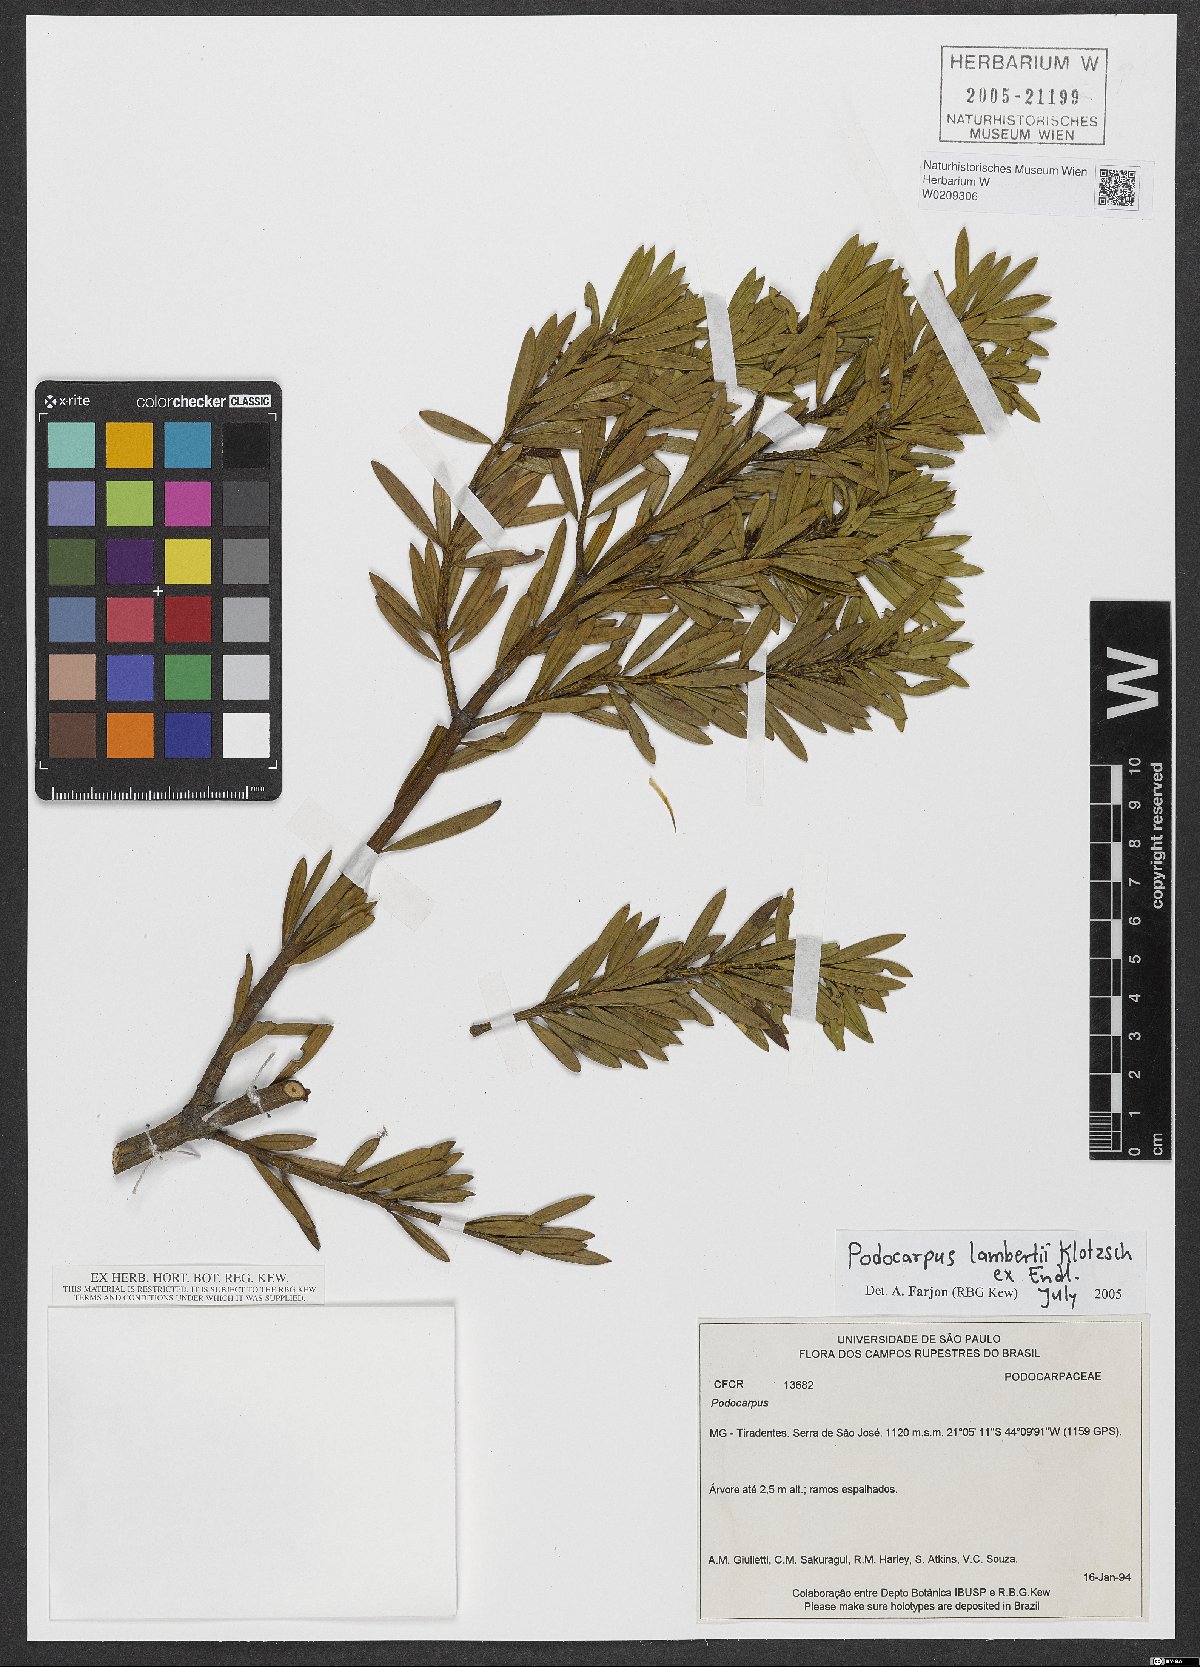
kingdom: Plantae
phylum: Tracheophyta
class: Pinopsida
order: Pinales
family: Podocarpaceae
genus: Podocarpus
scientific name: Podocarpus lambertii
